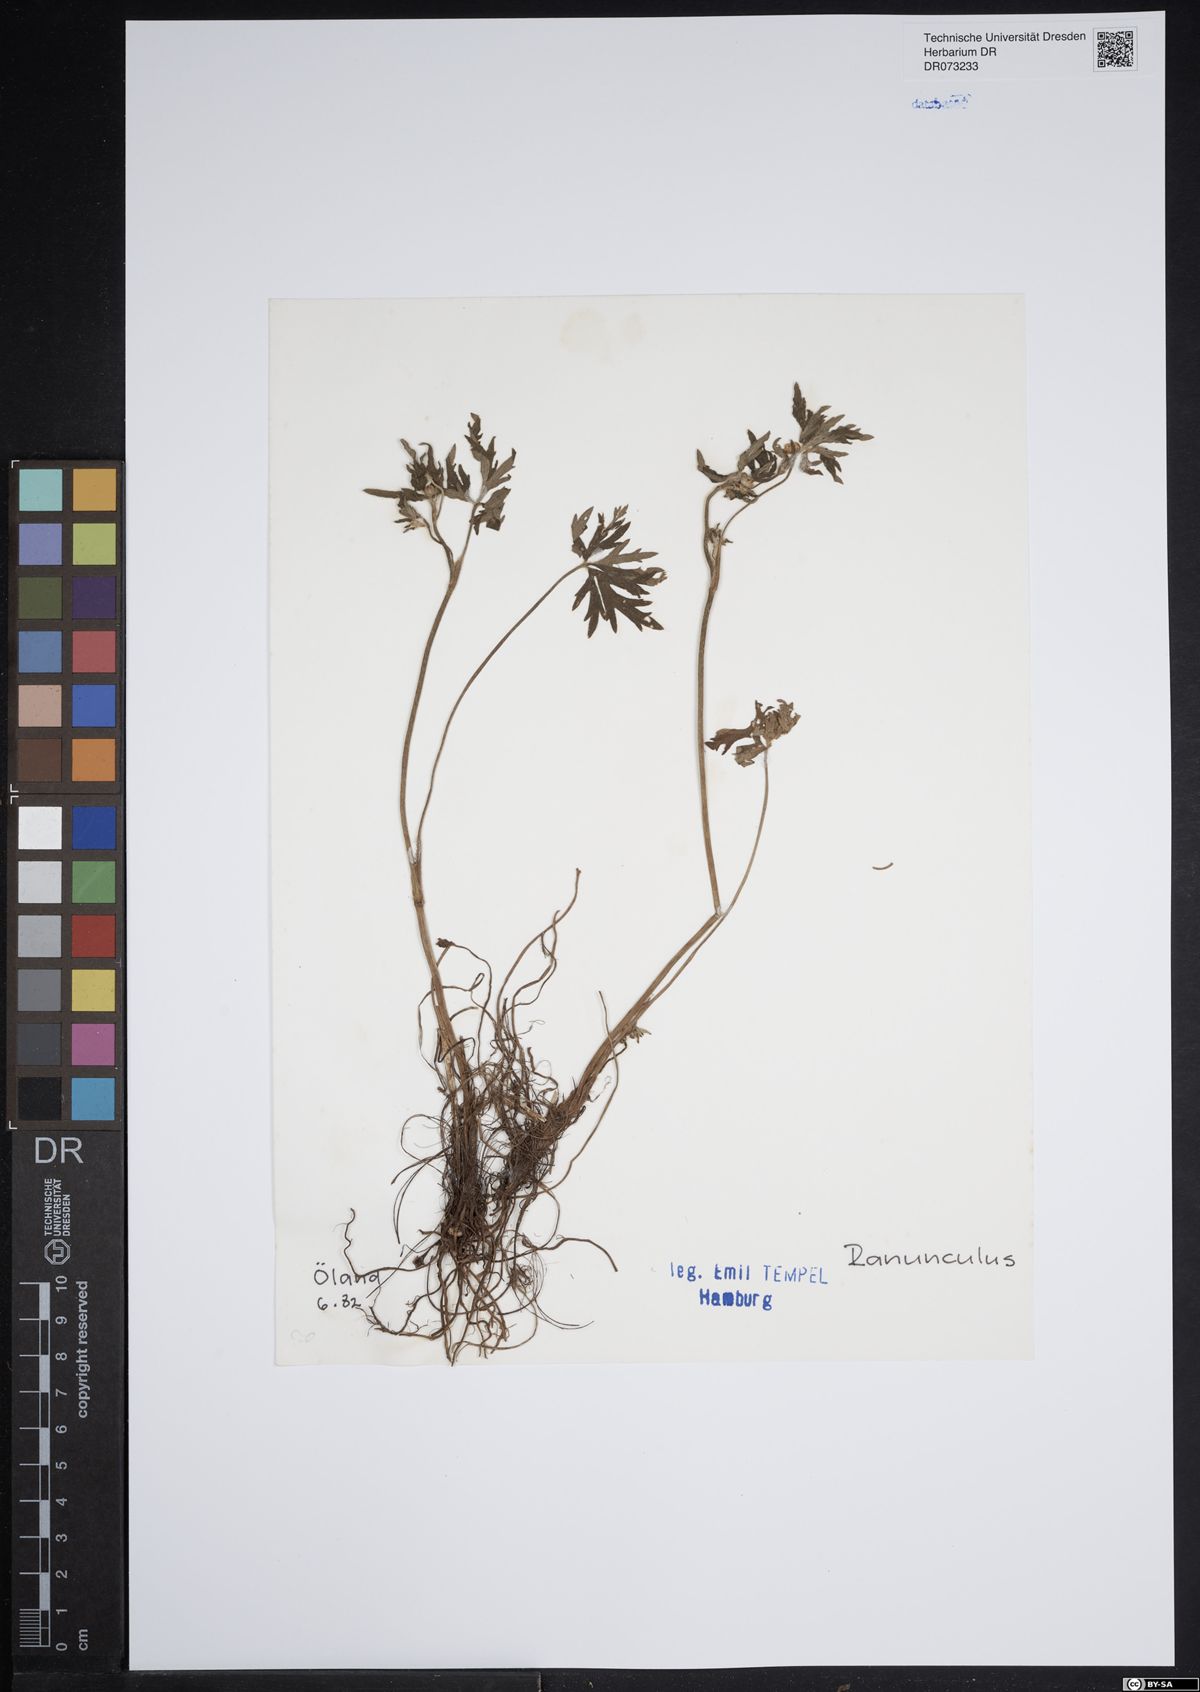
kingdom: Plantae
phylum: Tracheophyta
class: Magnoliopsida
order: Ranunculales
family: Ranunculaceae
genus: Ranunculus
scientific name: Ranunculus
